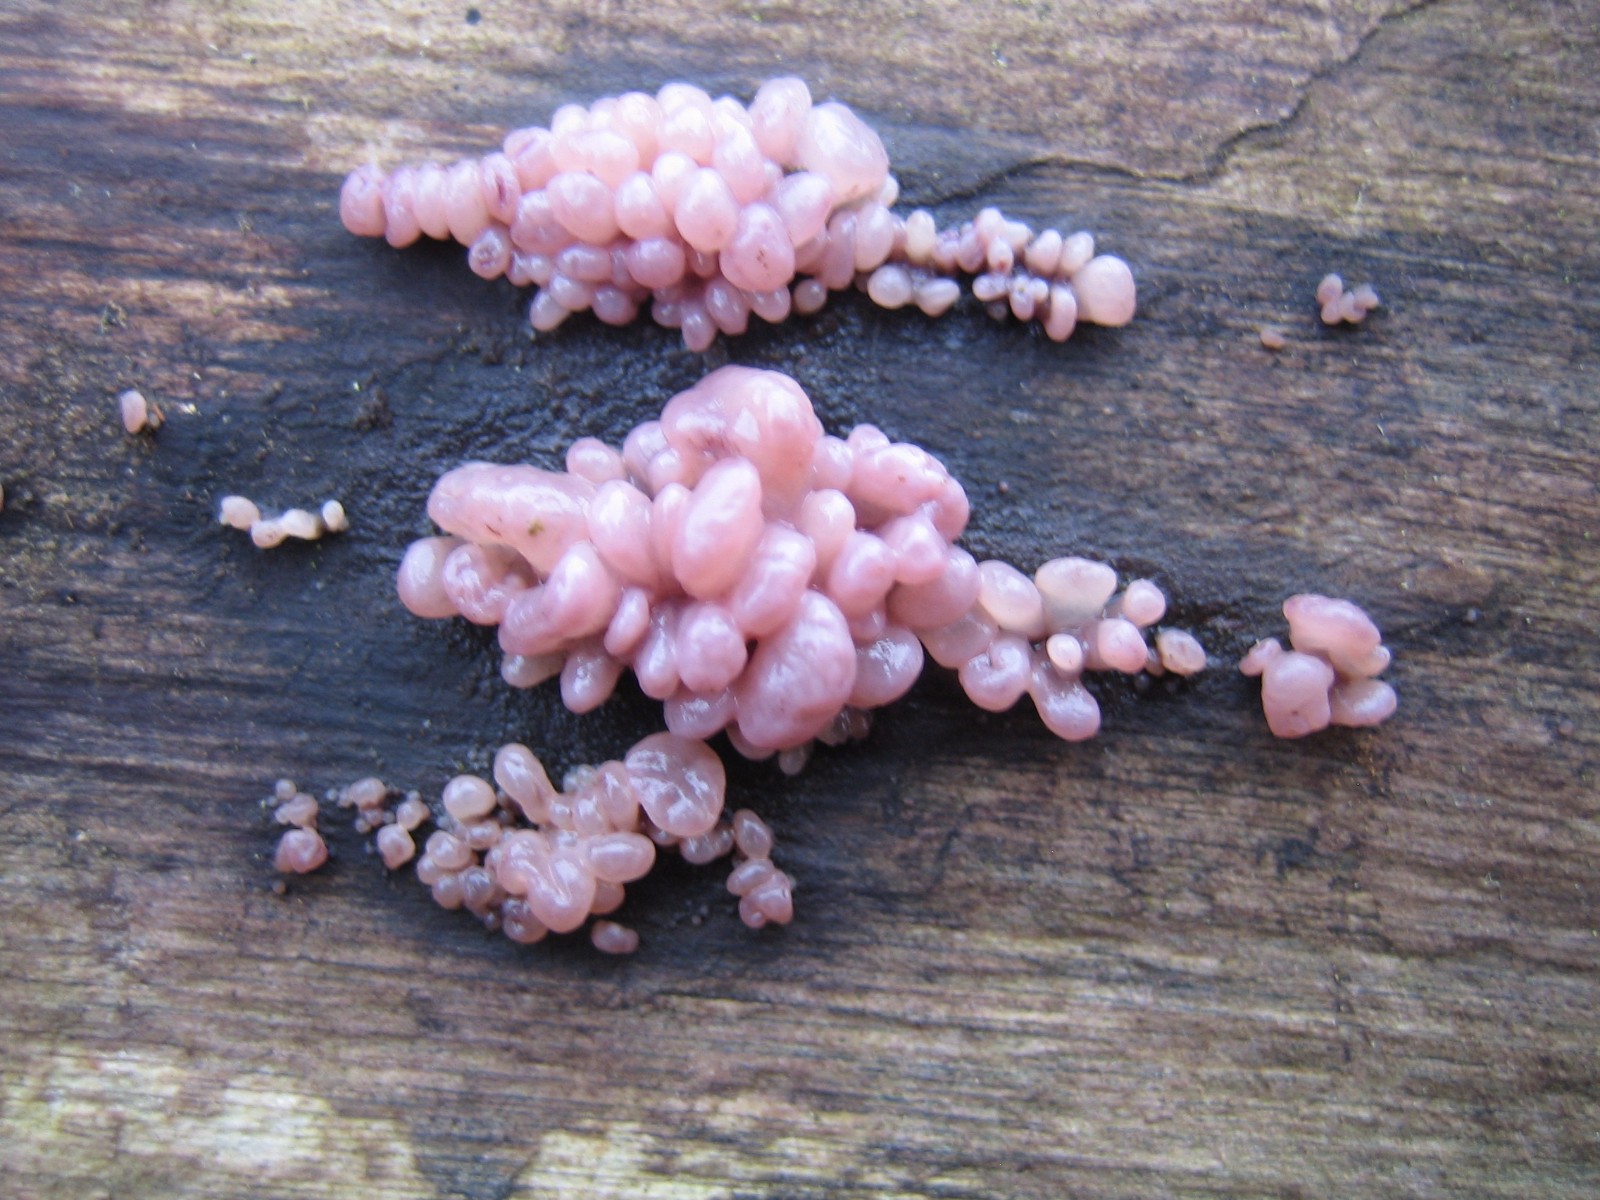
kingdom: Fungi
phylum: Ascomycota
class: Leotiomycetes
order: Helotiales
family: Gelatinodiscaceae
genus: Ascocoryne
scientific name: Ascocoryne sarcoides
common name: rødlilla sejskive
